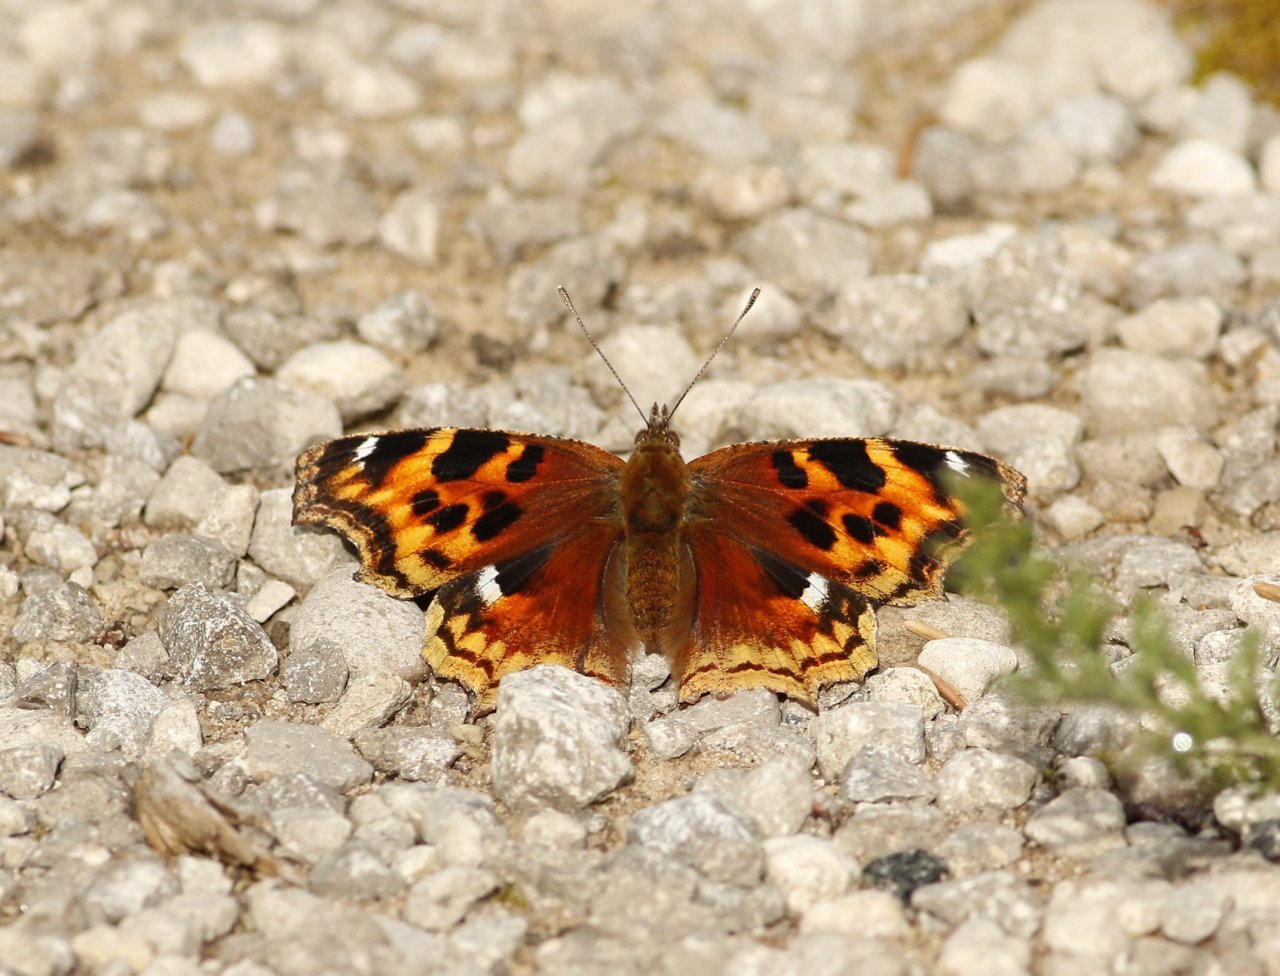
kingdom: Animalia
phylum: Arthropoda
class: Insecta
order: Lepidoptera
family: Nymphalidae
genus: Polygonia
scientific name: Polygonia vaualbum
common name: Compton Tortoiseshell
